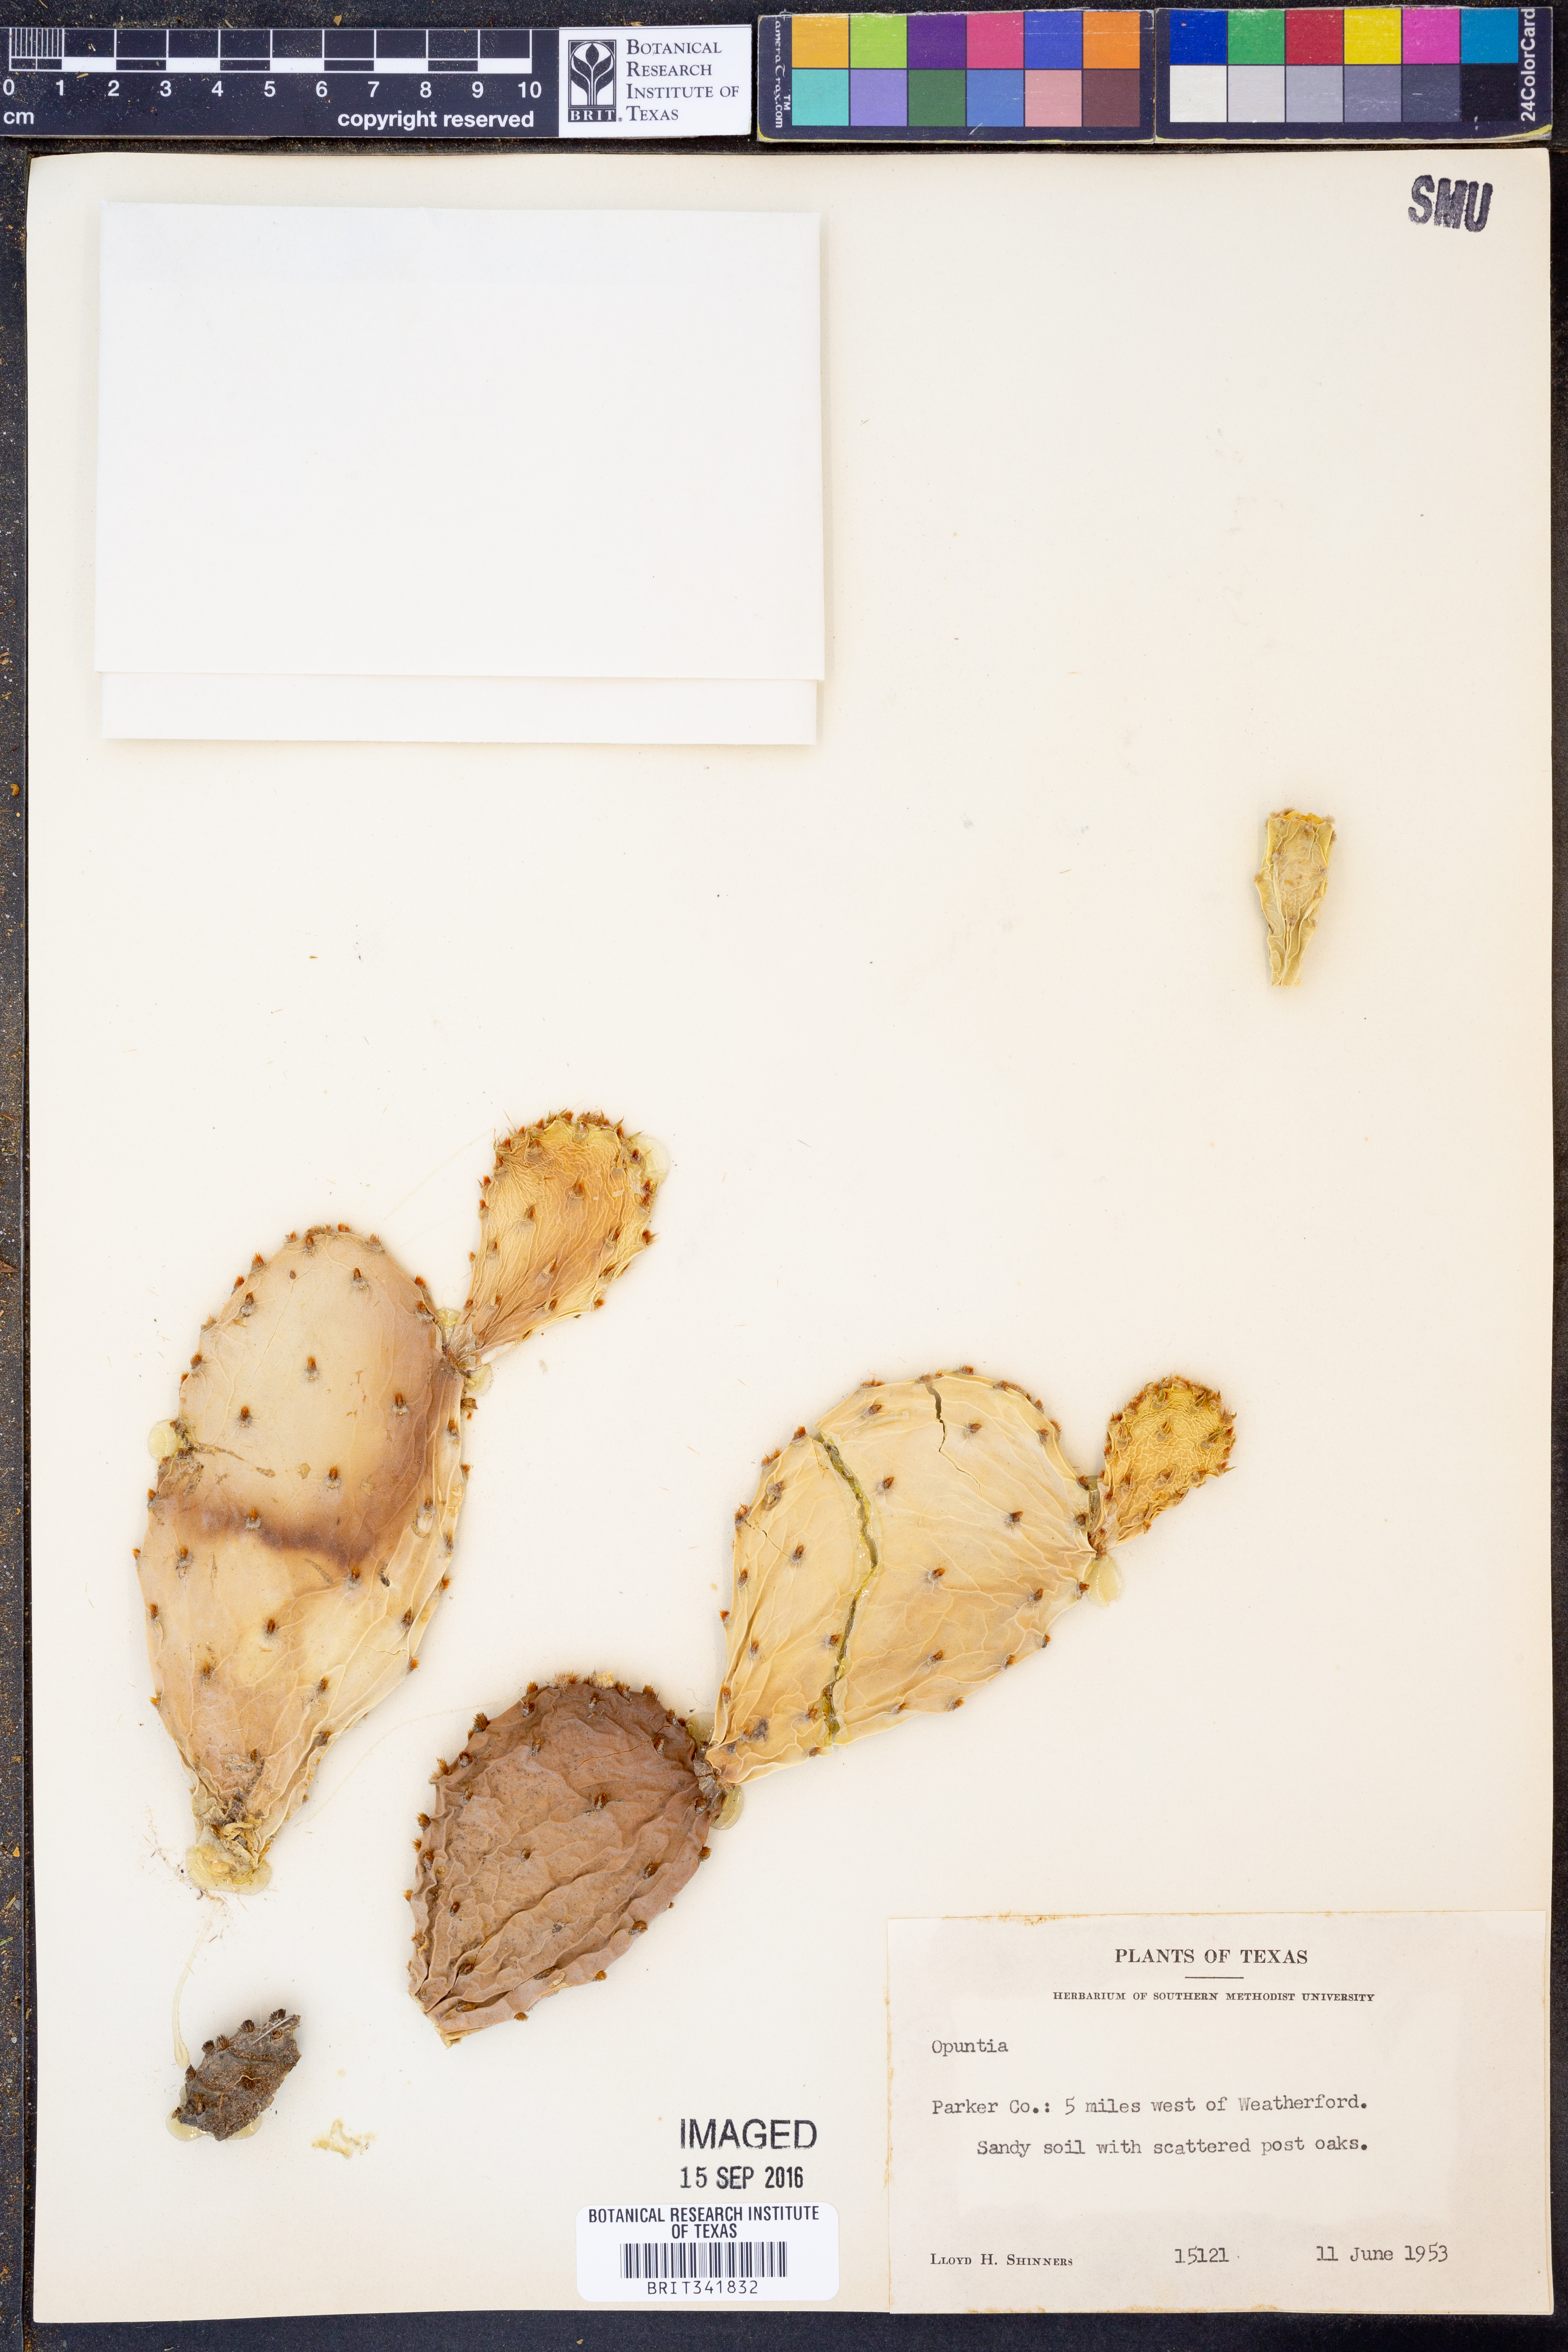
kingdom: Plantae
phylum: Tracheophyta
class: Magnoliopsida
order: Caryophyllales
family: Cactaceae
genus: Opuntia
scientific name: Opuntia
